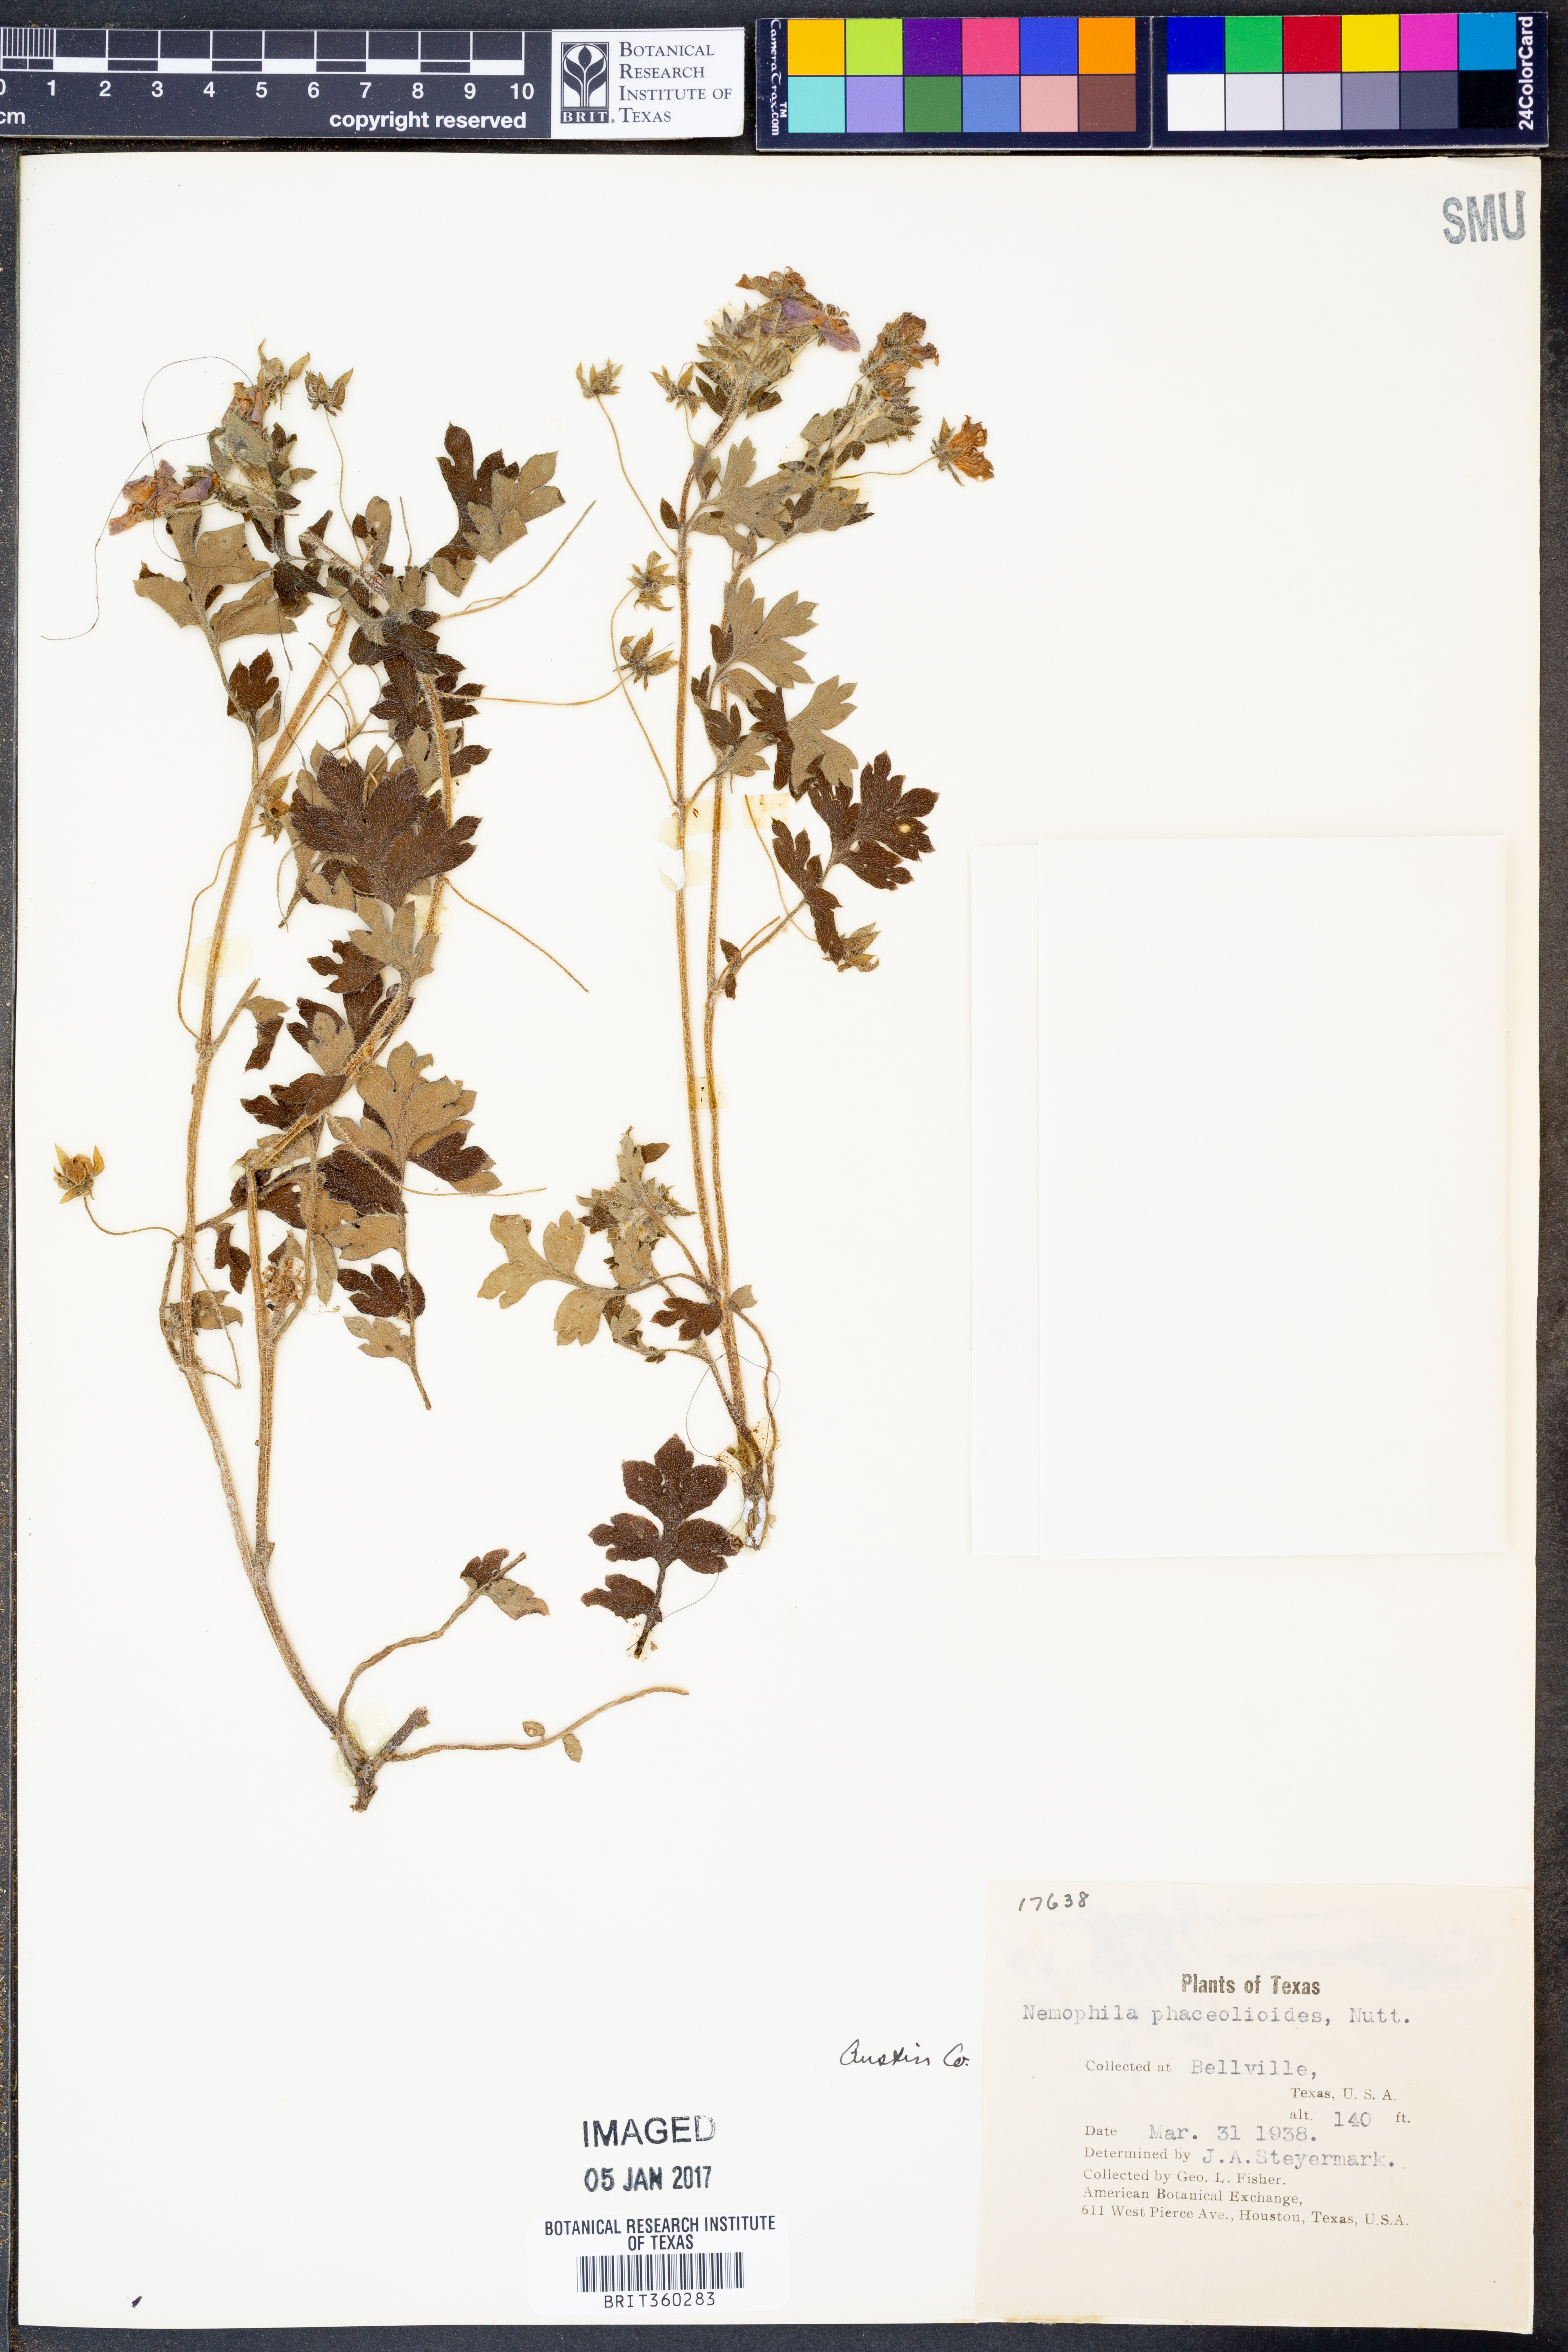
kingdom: Plantae
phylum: Tracheophyta
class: Magnoliopsida
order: Boraginales
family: Hydrophyllaceae
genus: Nemophila
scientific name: Nemophila phacelioides
